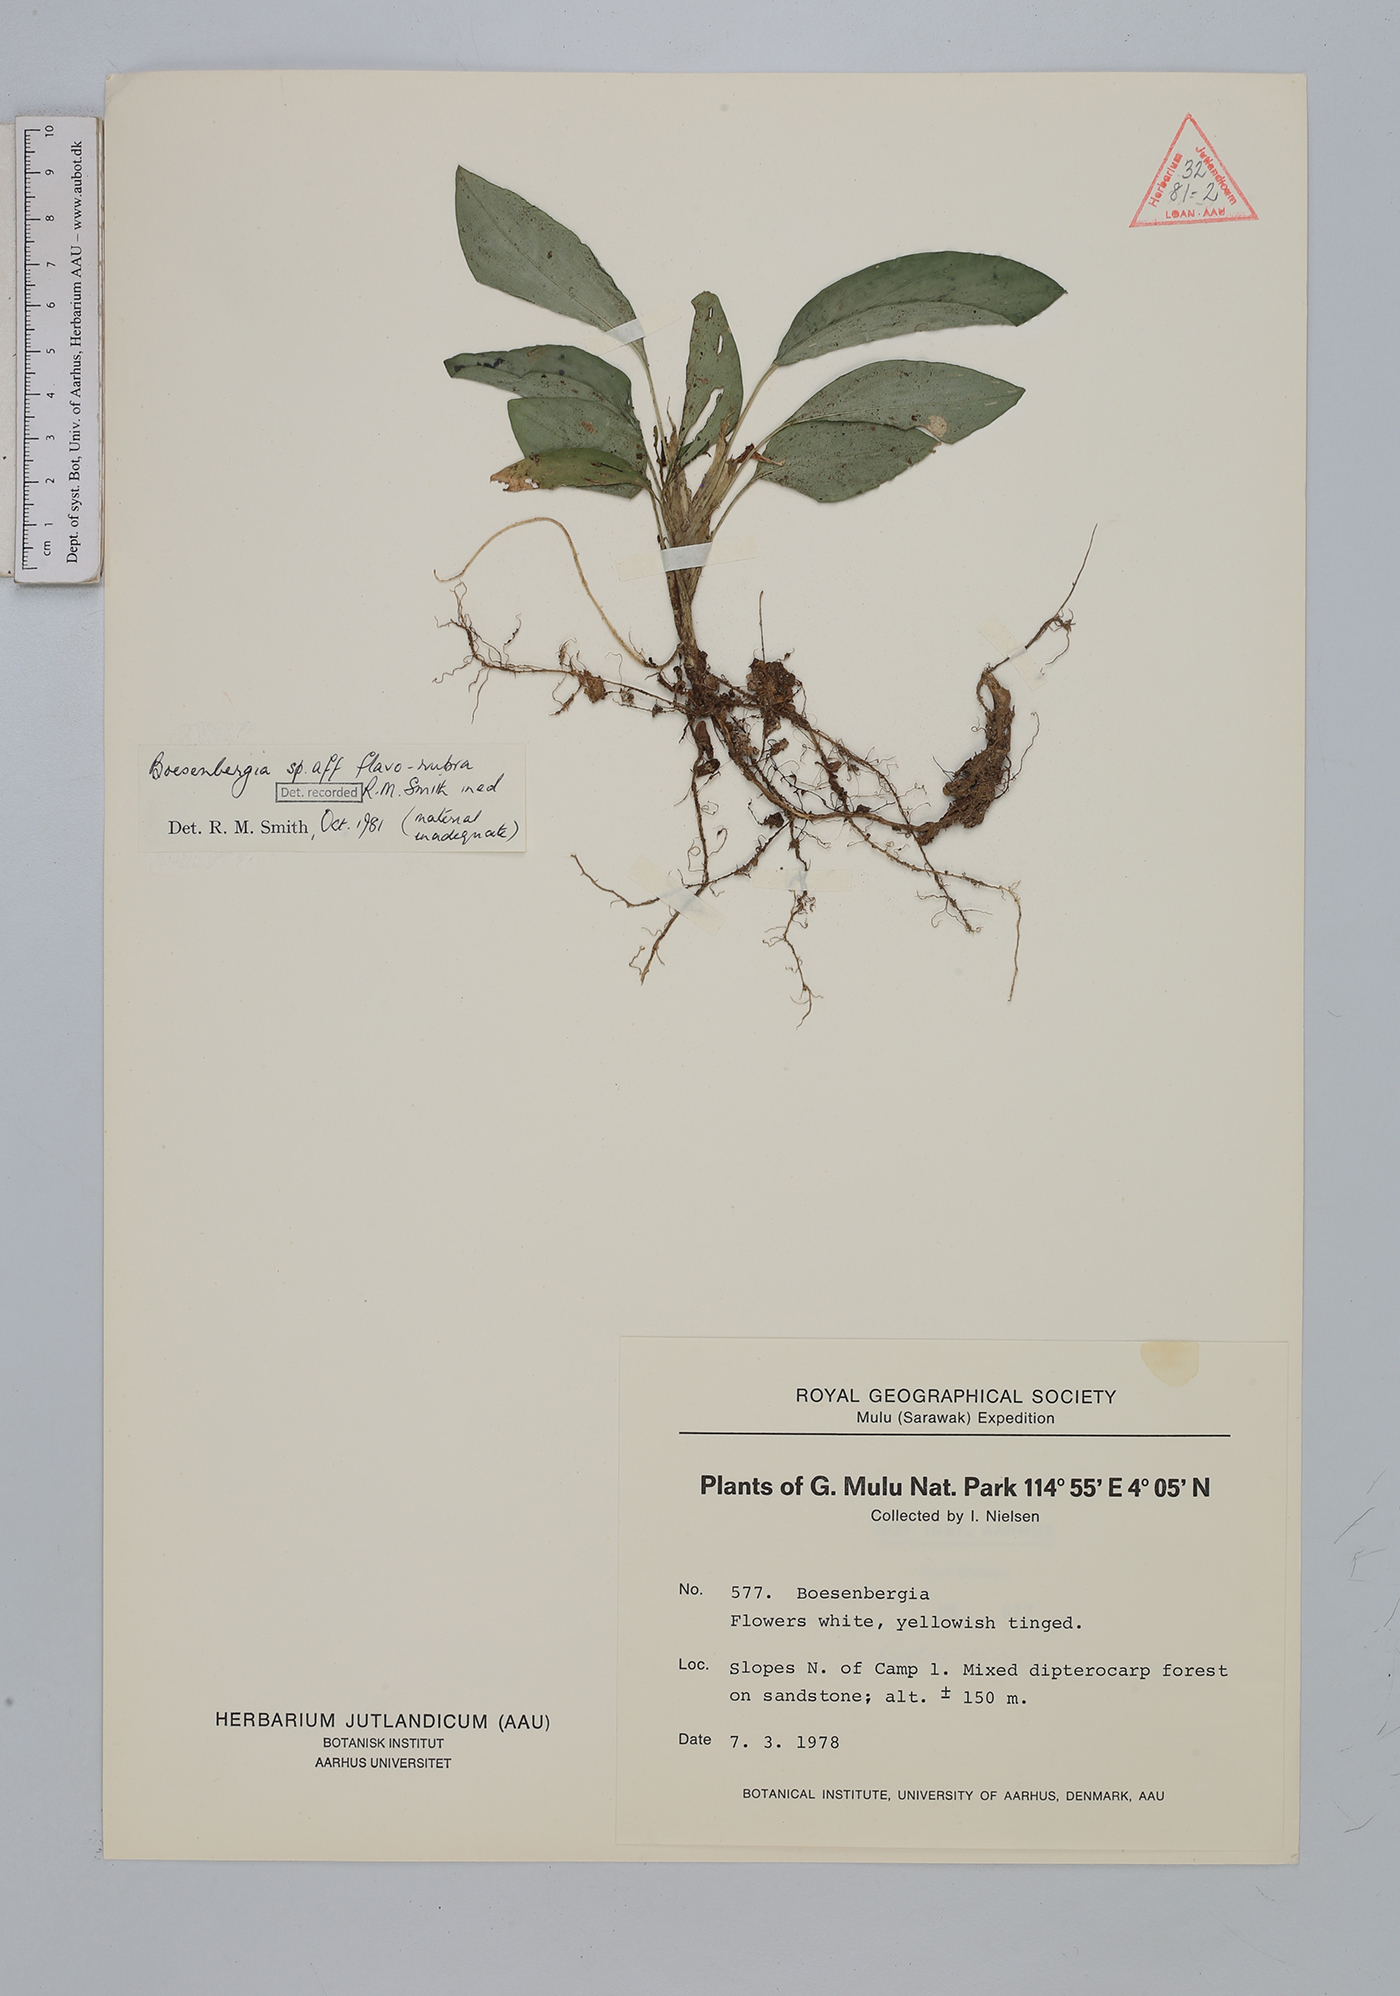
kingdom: Plantae
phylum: Tracheophyta
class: Liliopsida
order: Zingiberales
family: Zingiberaceae
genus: Boesenbergia
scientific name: Boesenbergia flavorubra
